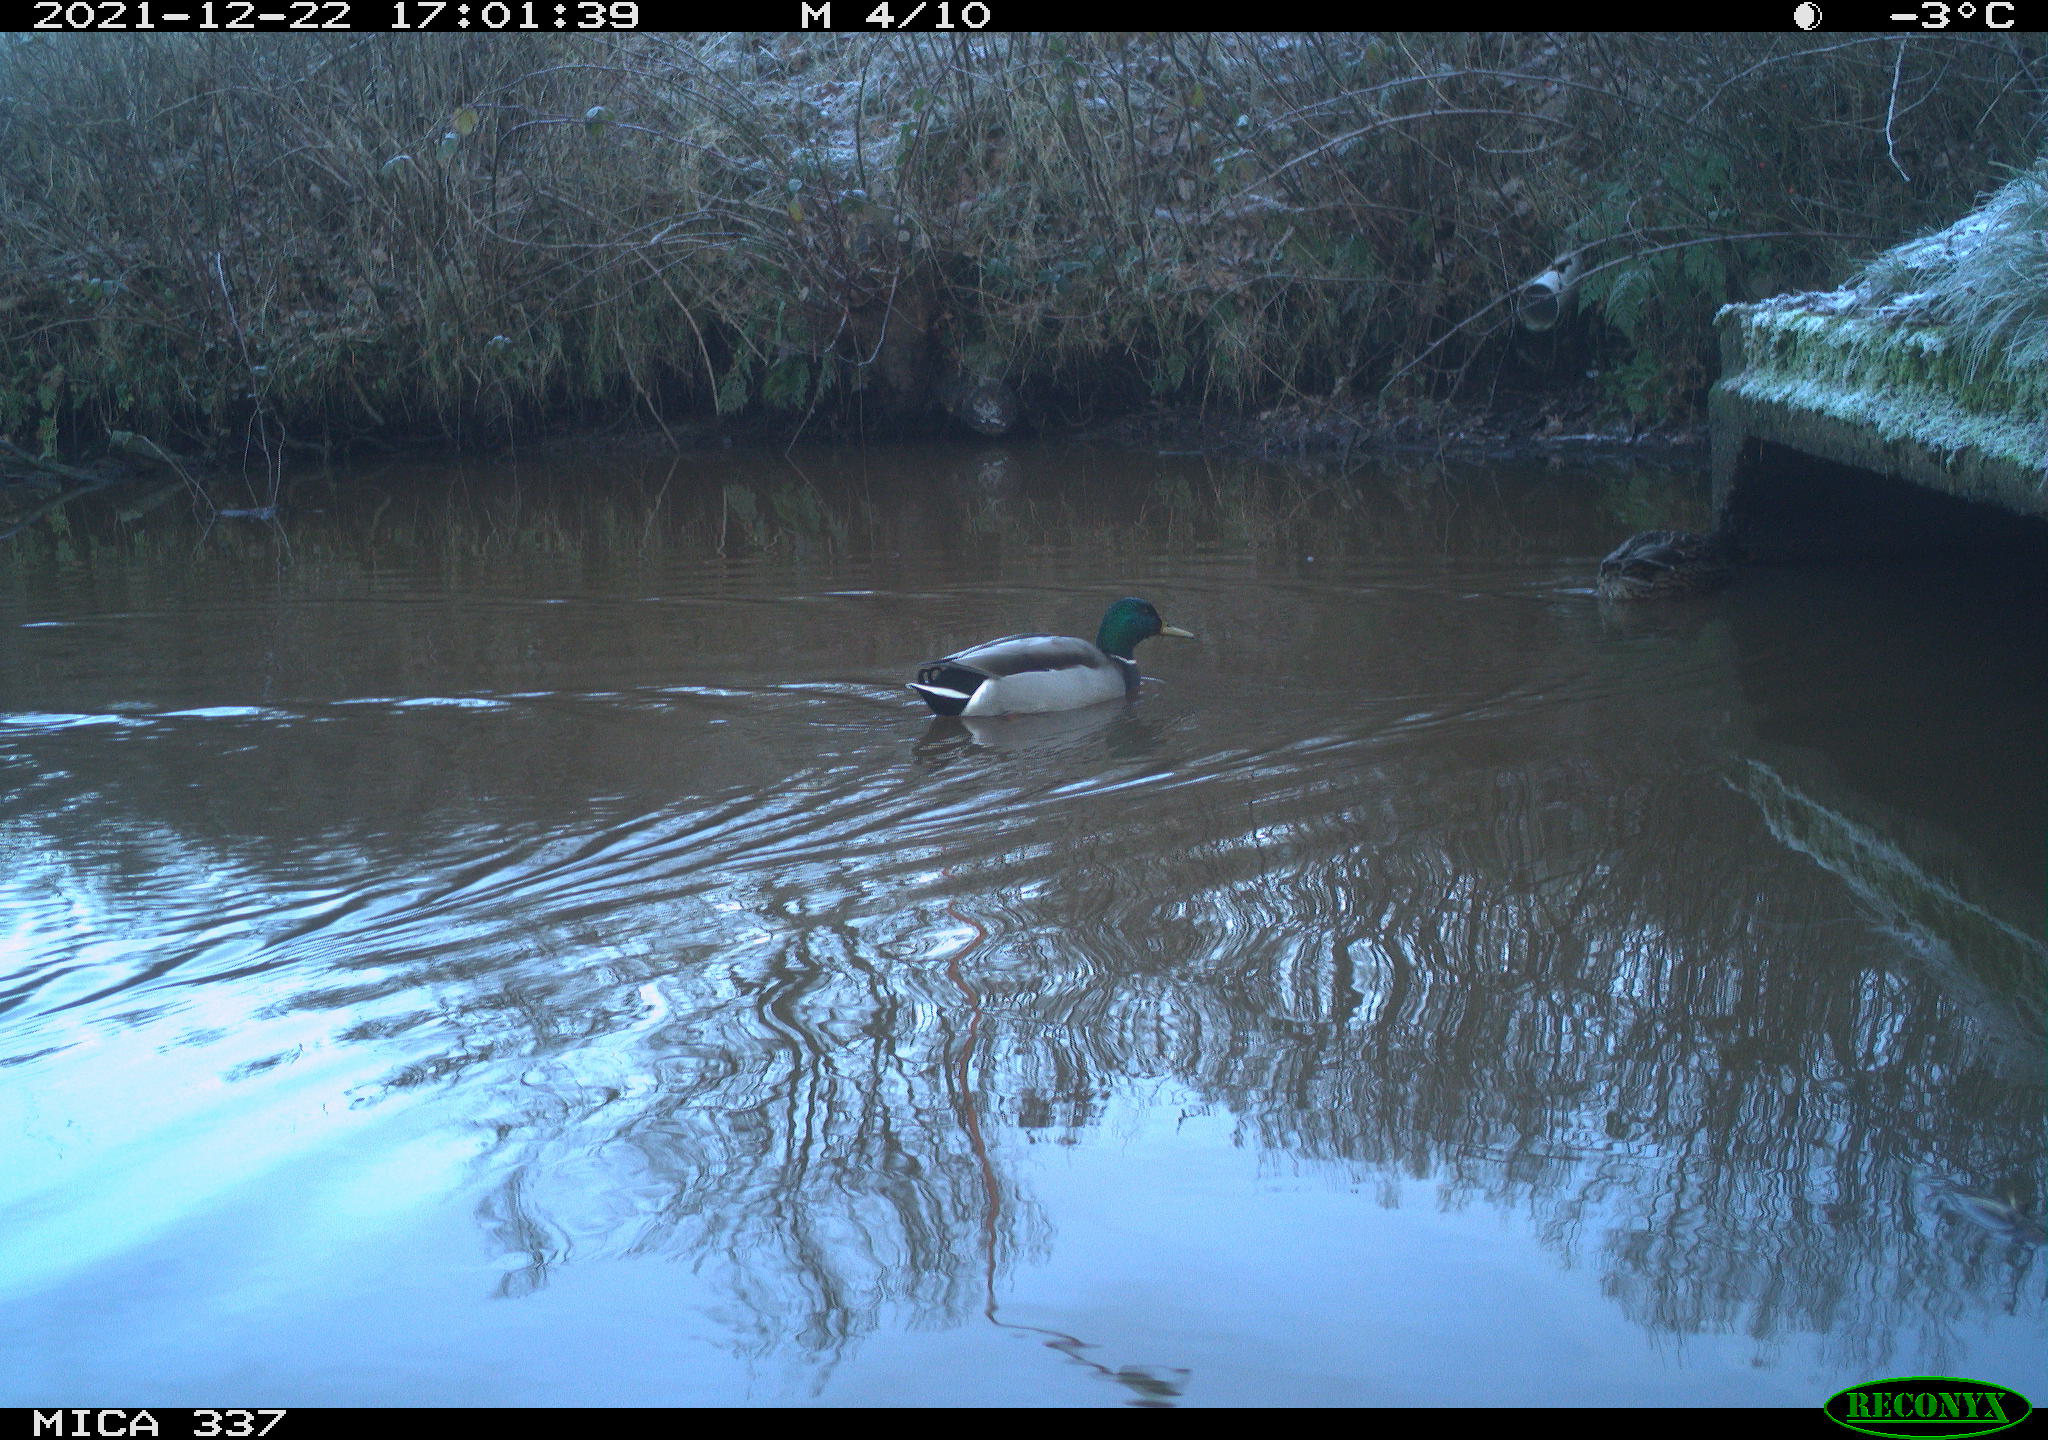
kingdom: Animalia
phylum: Chordata
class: Aves
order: Anseriformes
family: Anatidae
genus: Anas
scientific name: Anas platyrhynchos
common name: Mallard
